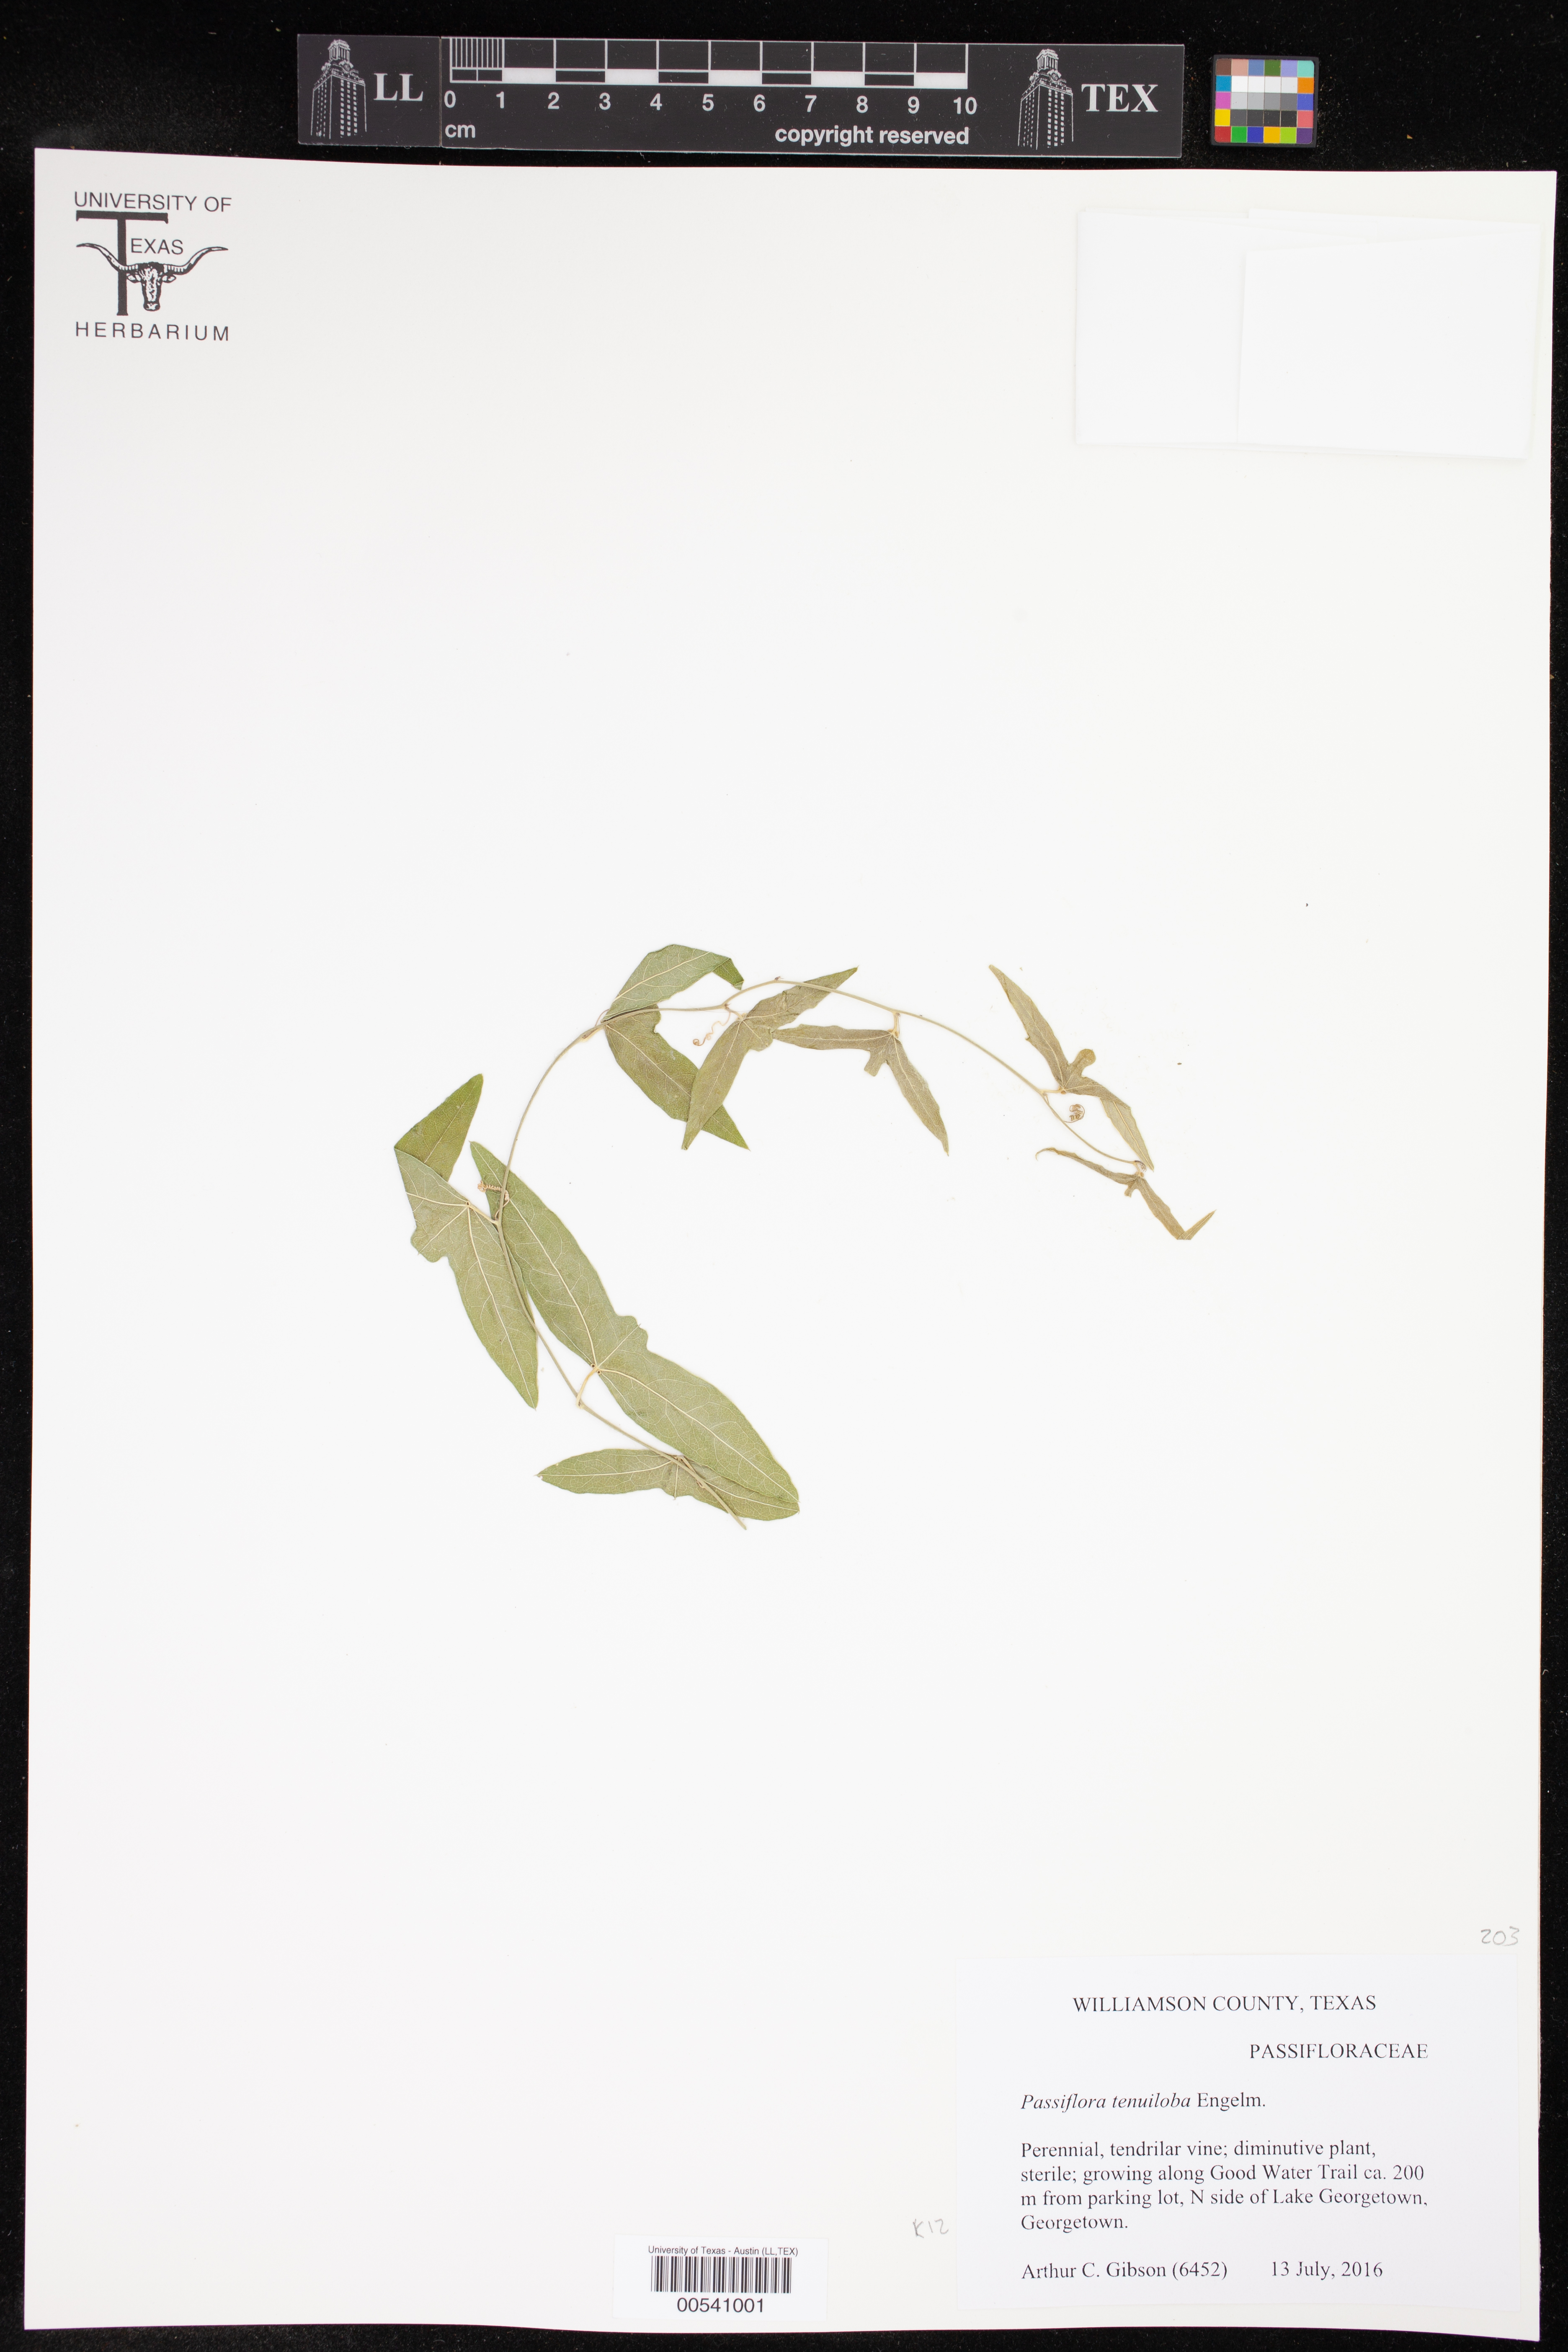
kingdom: Plantae
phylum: Tracheophyta
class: Magnoliopsida
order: Malpighiales
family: Passifloraceae
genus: Passiflora
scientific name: Passiflora tenuiloba
